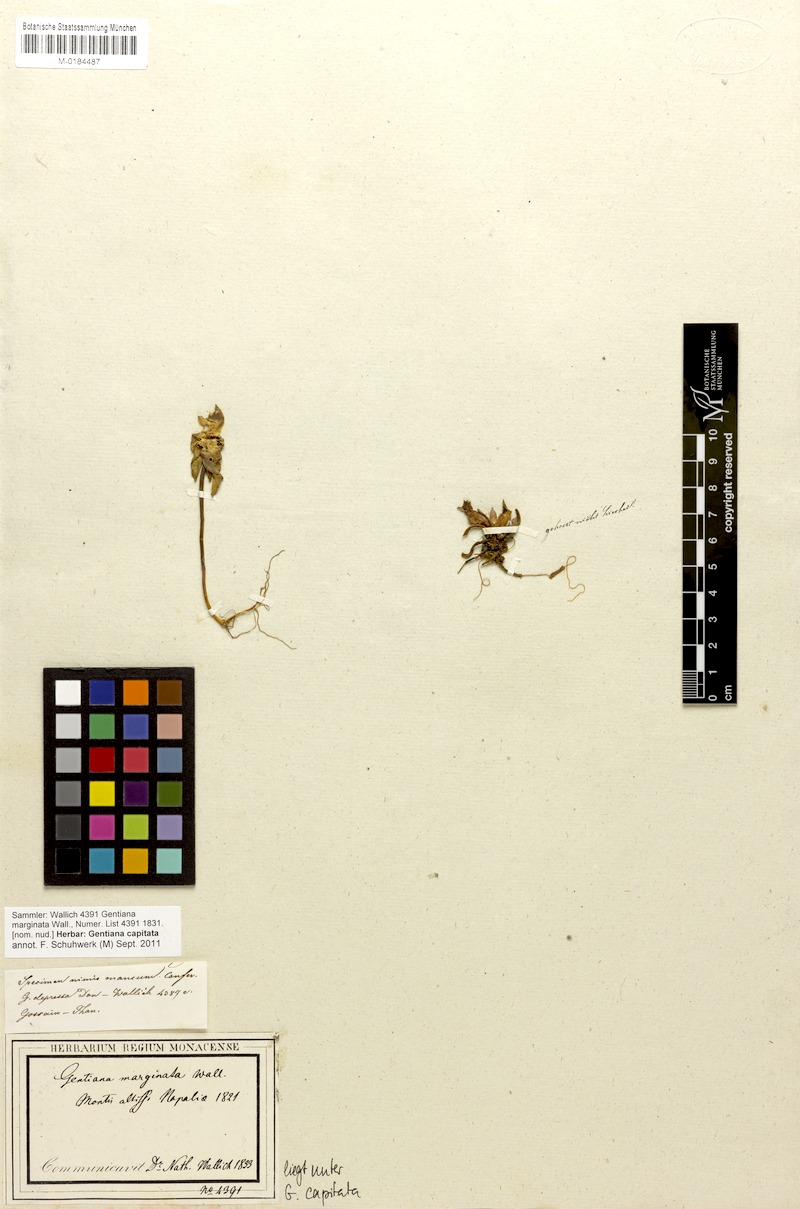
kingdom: Plantae
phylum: Tracheophyta
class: Magnoliopsida
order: Gentianales
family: Gentianaceae
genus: Gentiana
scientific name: Gentiana capitata
